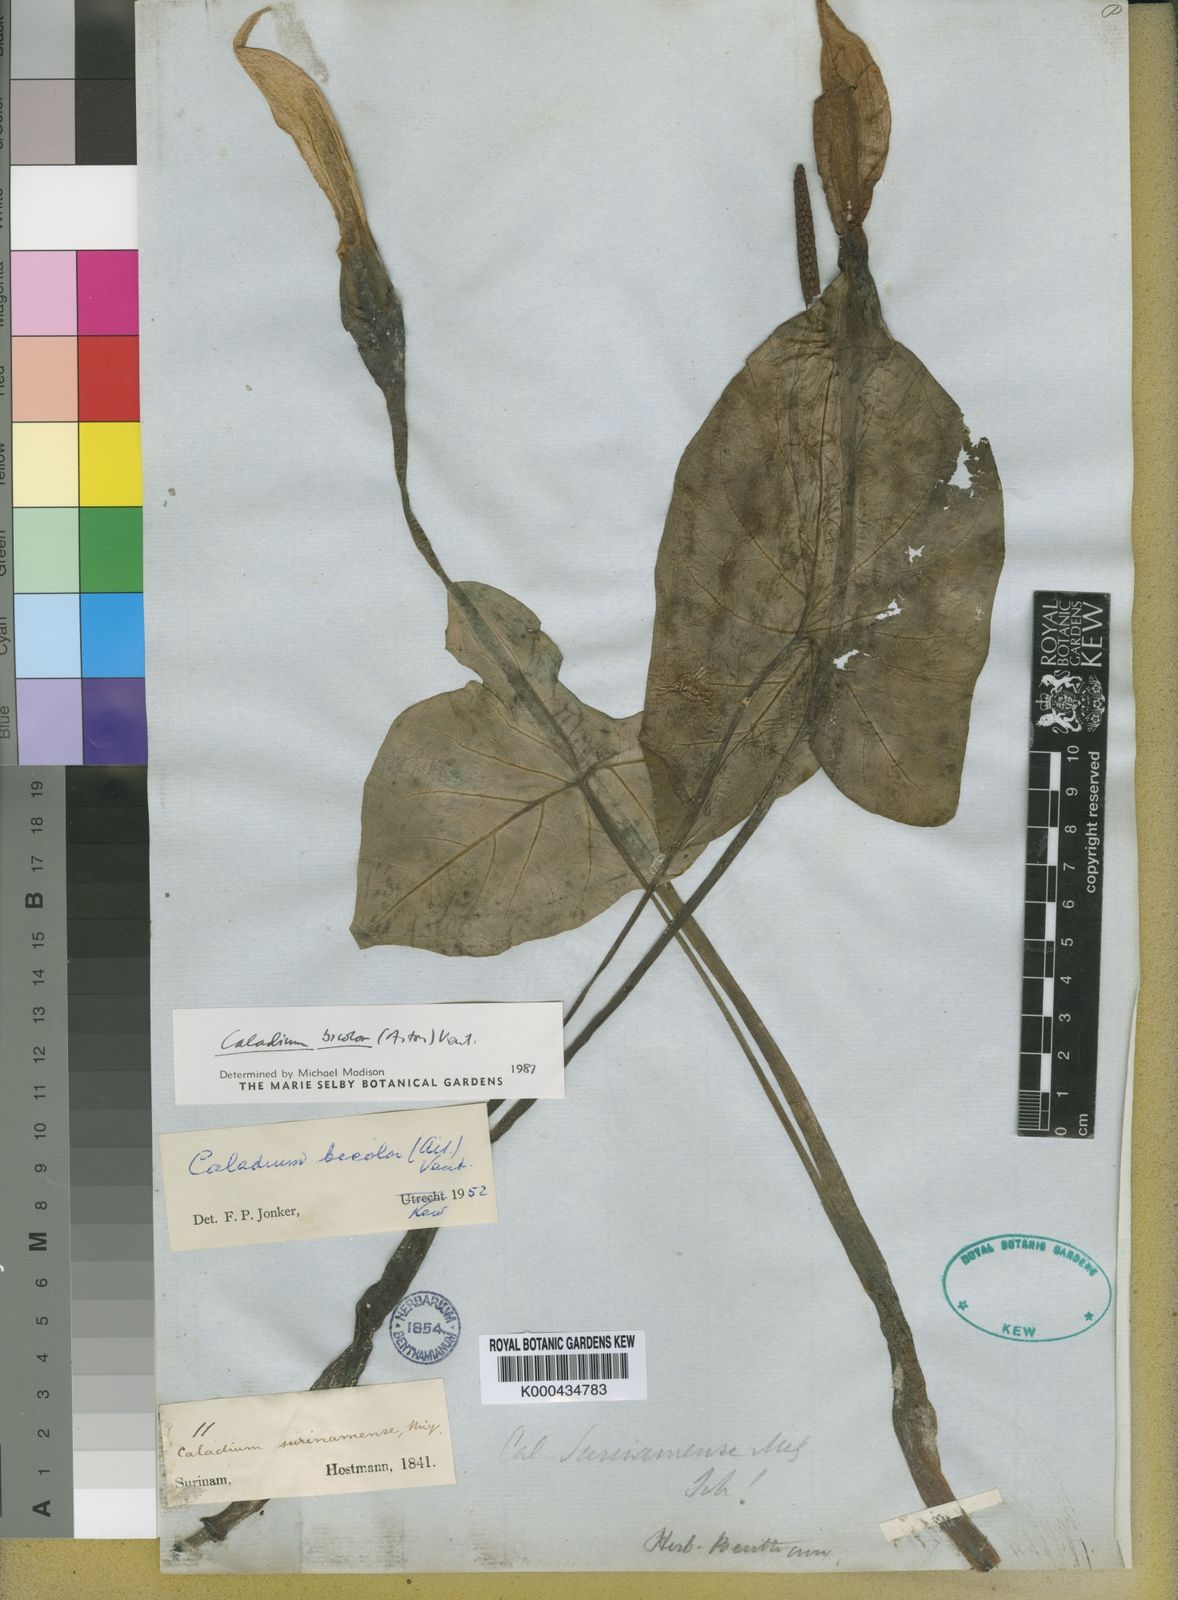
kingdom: Plantae
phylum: Tracheophyta
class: Liliopsida
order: Alismatales
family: Araceae
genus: Caladium
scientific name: Caladium bicolor
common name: Artist's pallet
